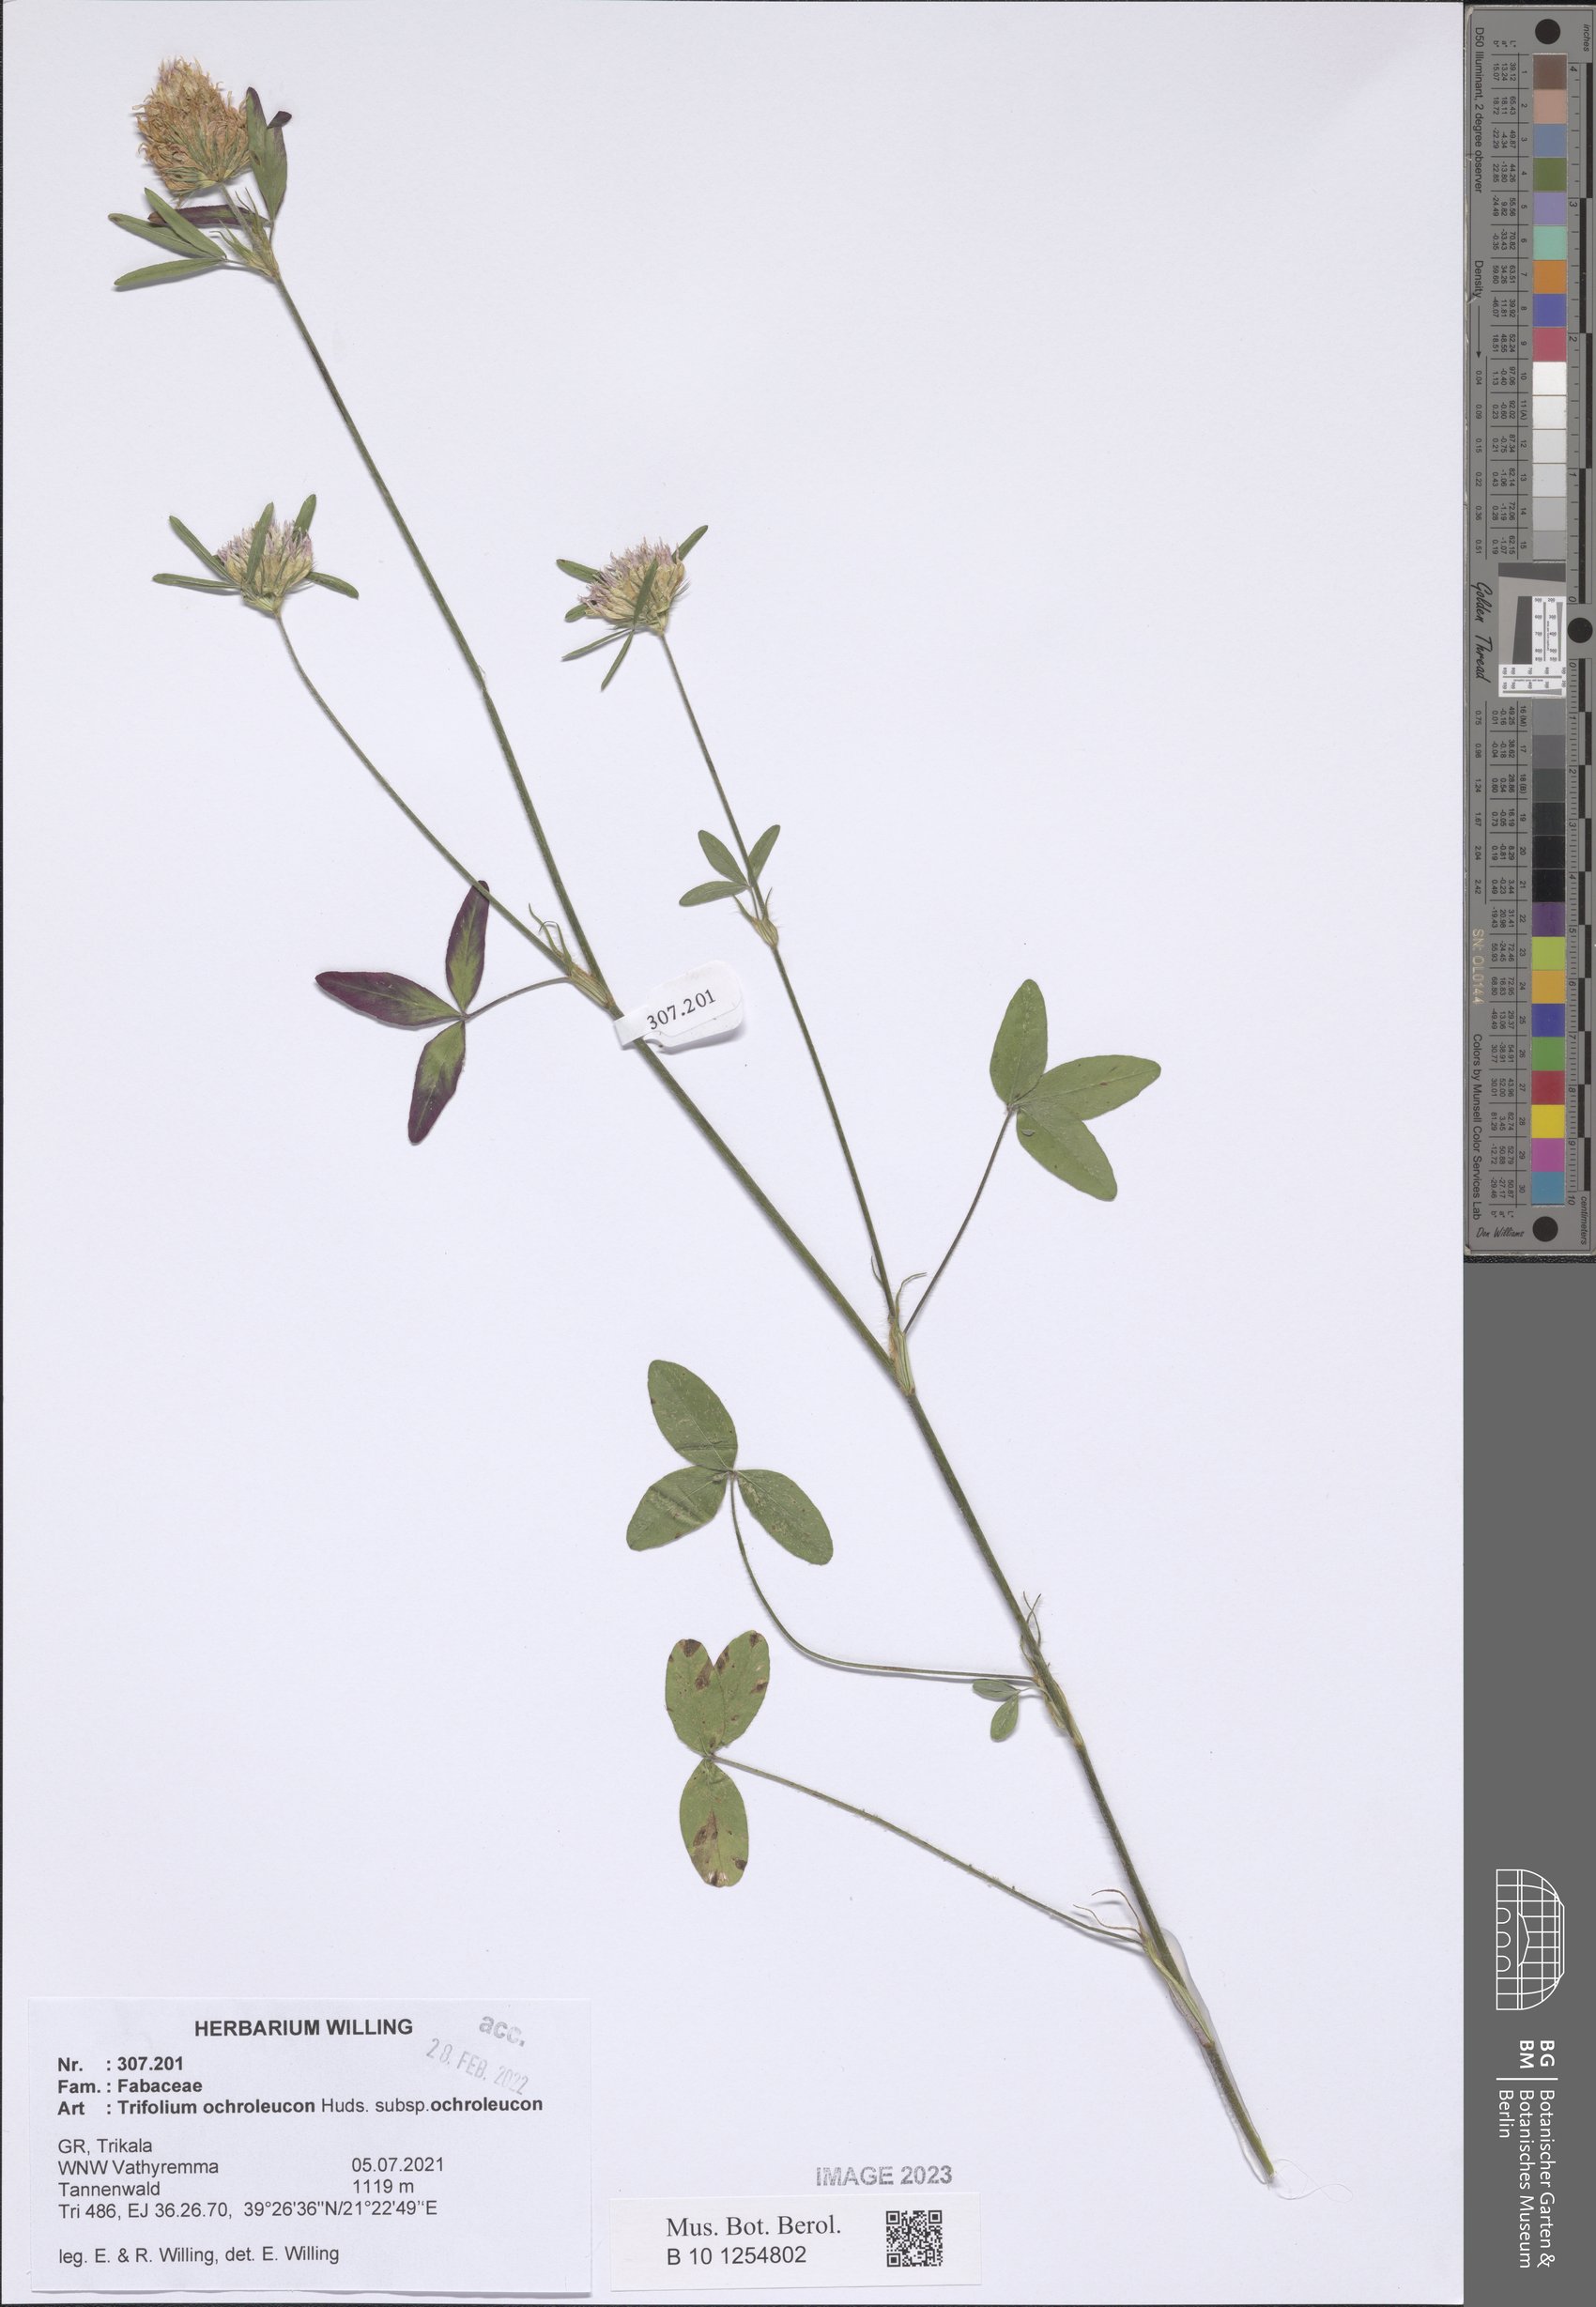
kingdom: Plantae
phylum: Tracheophyta
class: Magnoliopsida
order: Fabales
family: Fabaceae
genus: Trifolium
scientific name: Trifolium ochroleucon
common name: Sulphur clover
